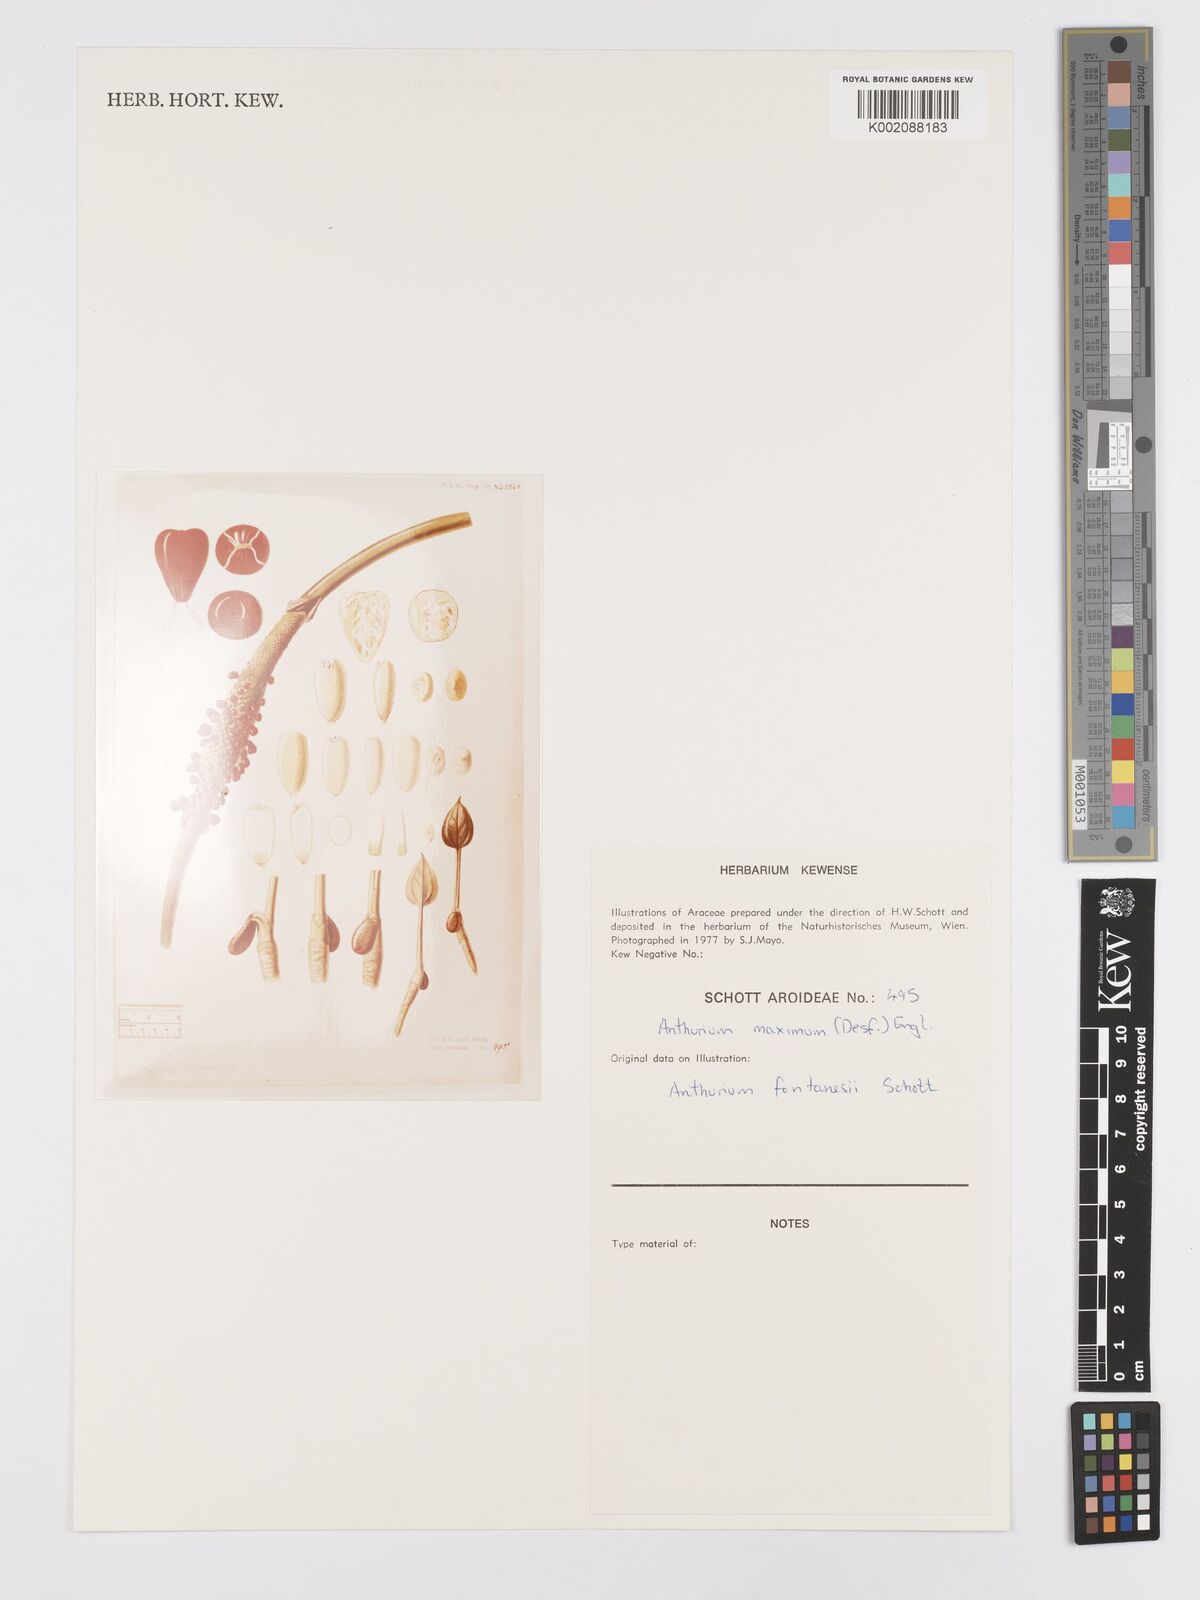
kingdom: Plantae
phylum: Tracheophyta
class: Liliopsida
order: Alismatales
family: Araceae
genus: Anthurium
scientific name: Anthurium maximum
